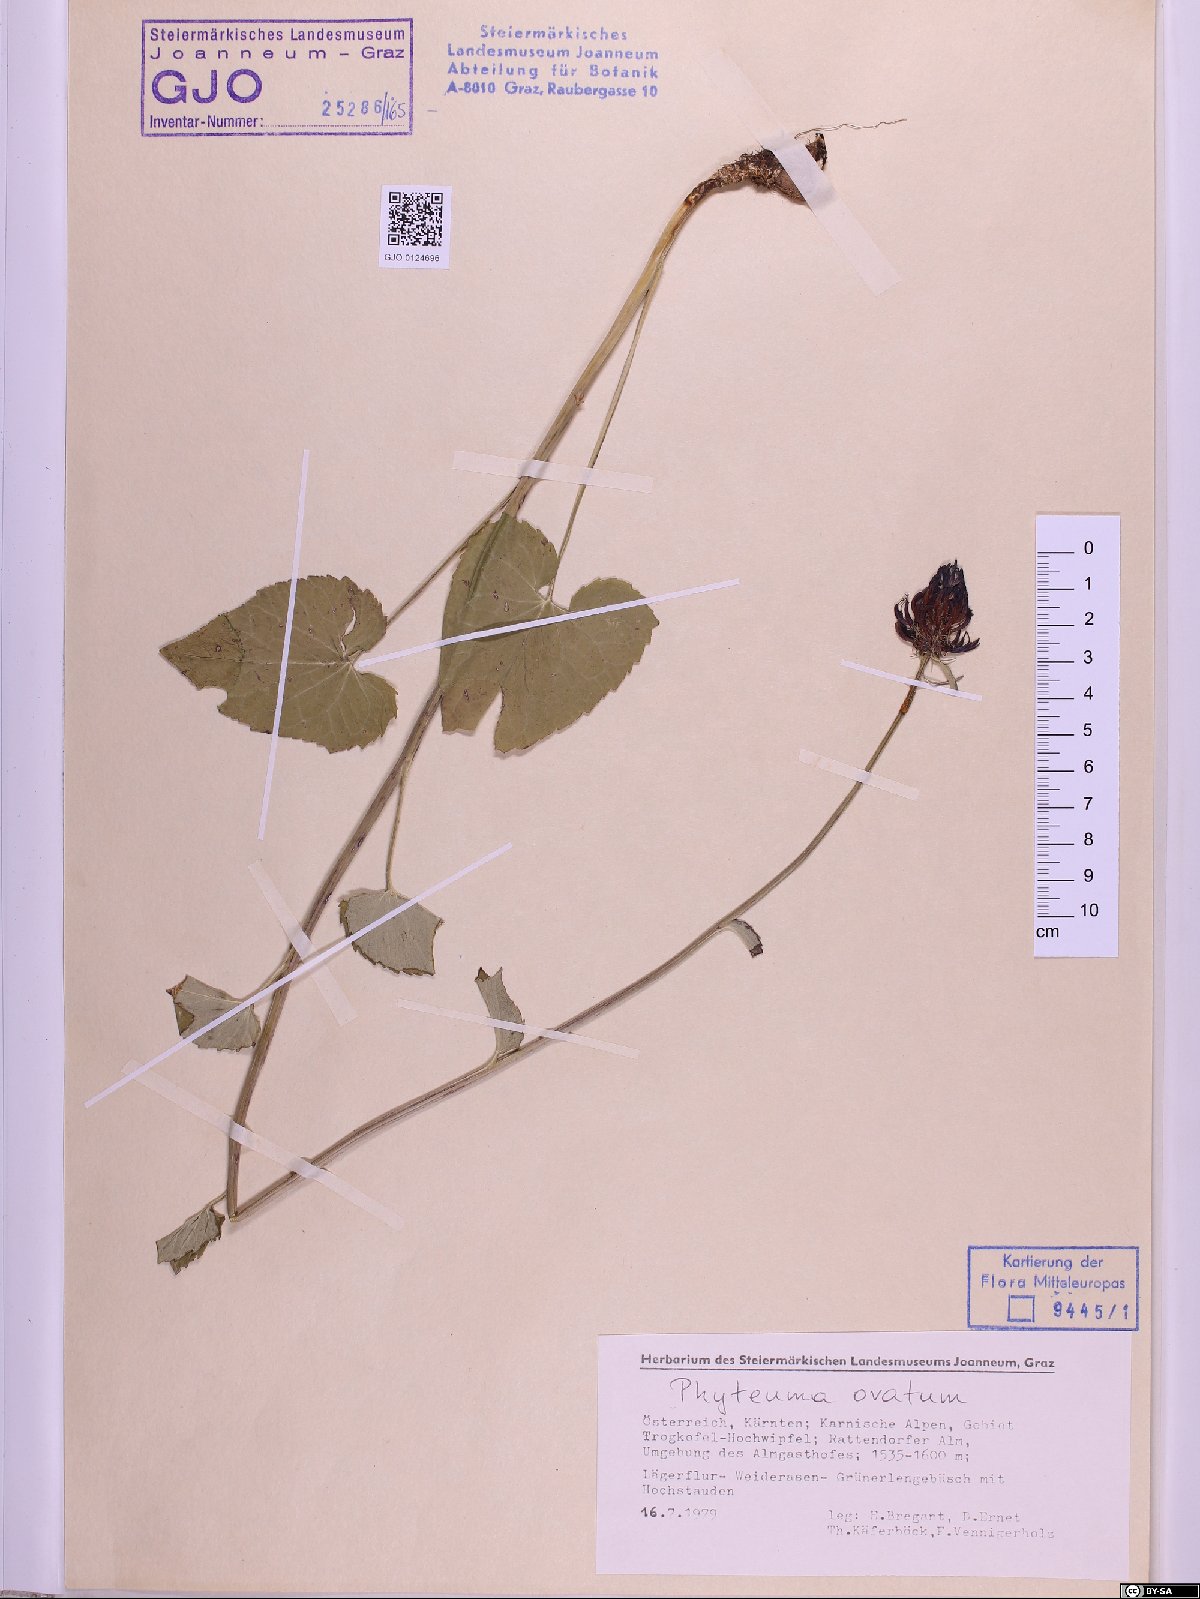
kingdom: Plantae
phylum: Tracheophyta
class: Magnoliopsida
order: Asterales
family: Campanulaceae
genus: Phyteuma
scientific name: Phyteuma ovatum
